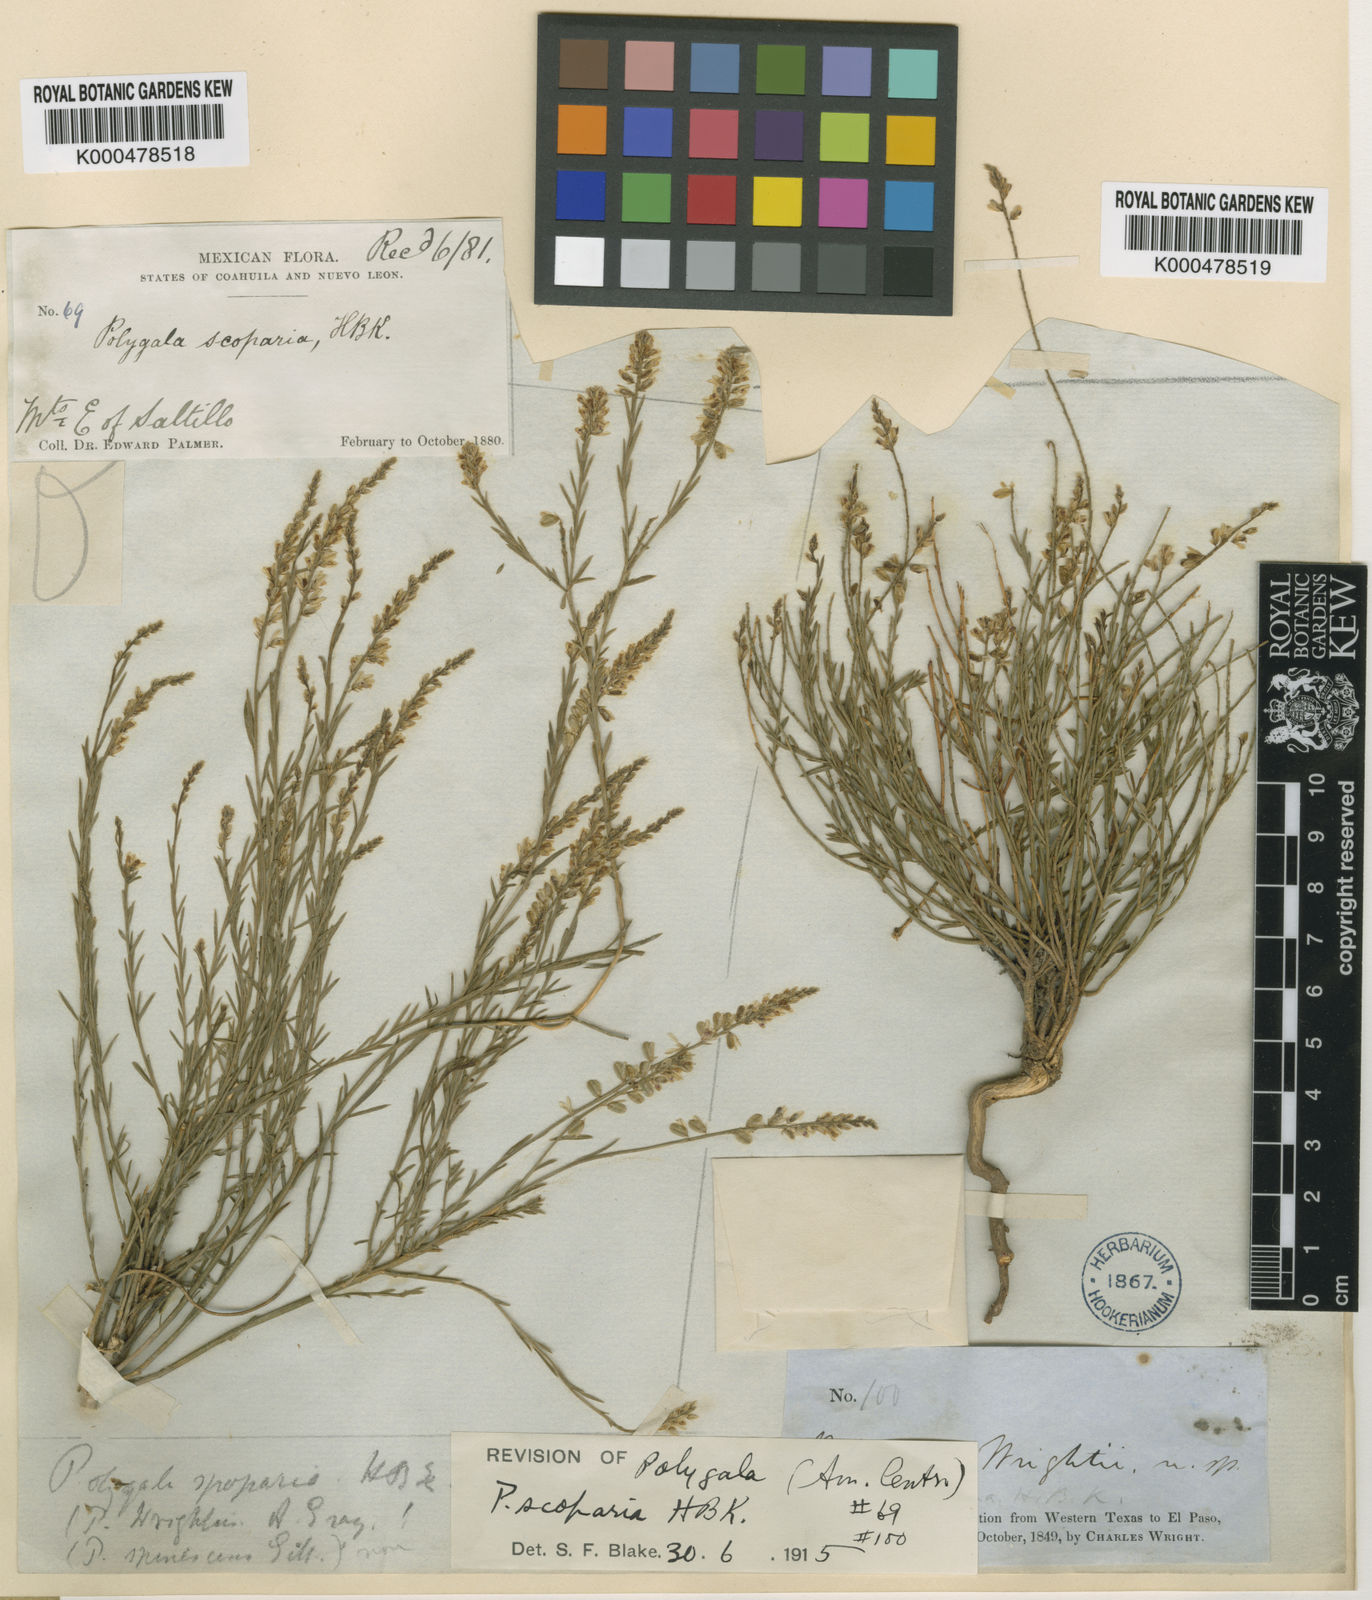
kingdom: Plantae
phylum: Tracheophyta
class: Magnoliopsida
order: Fabales
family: Polygalaceae
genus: Polygala
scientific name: Polygala mexicana
